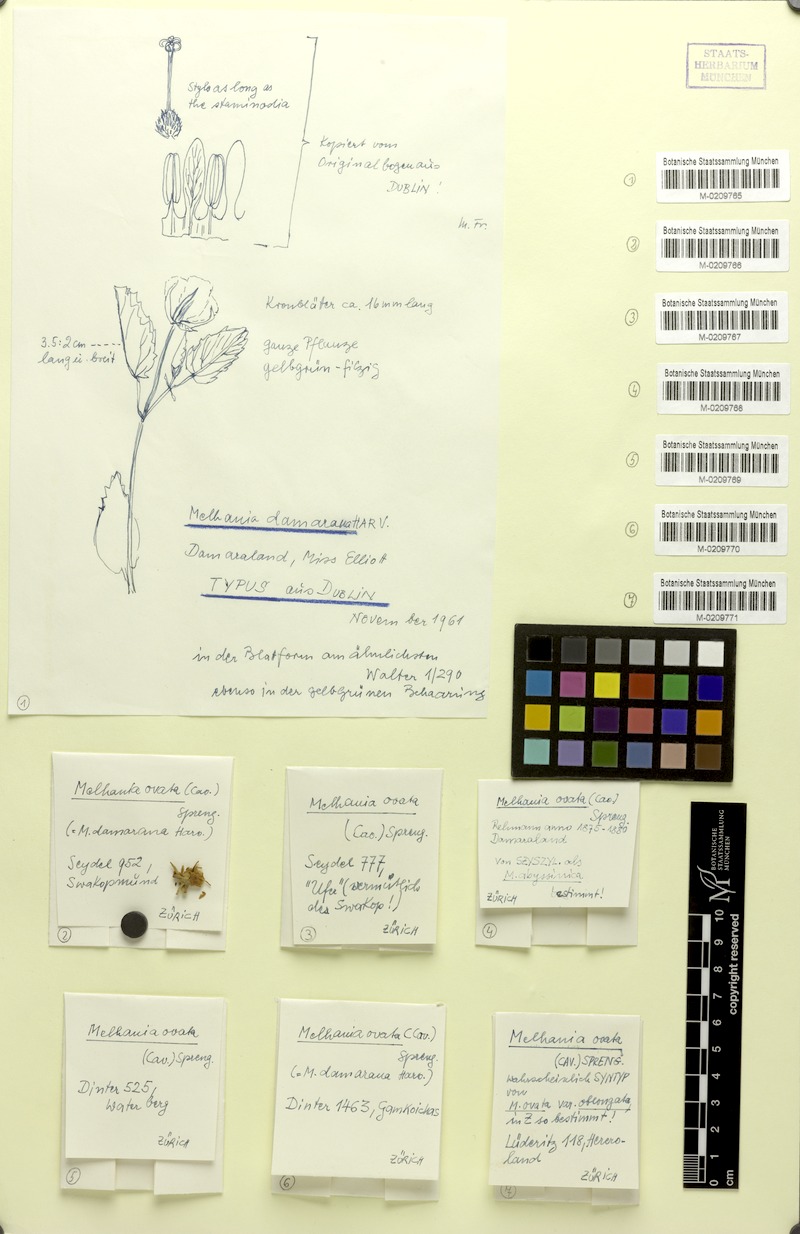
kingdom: Plantae
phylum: Tracheophyta
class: Magnoliopsida
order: Malvales
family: Malvaceae
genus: Melhania
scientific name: Melhania ovata
